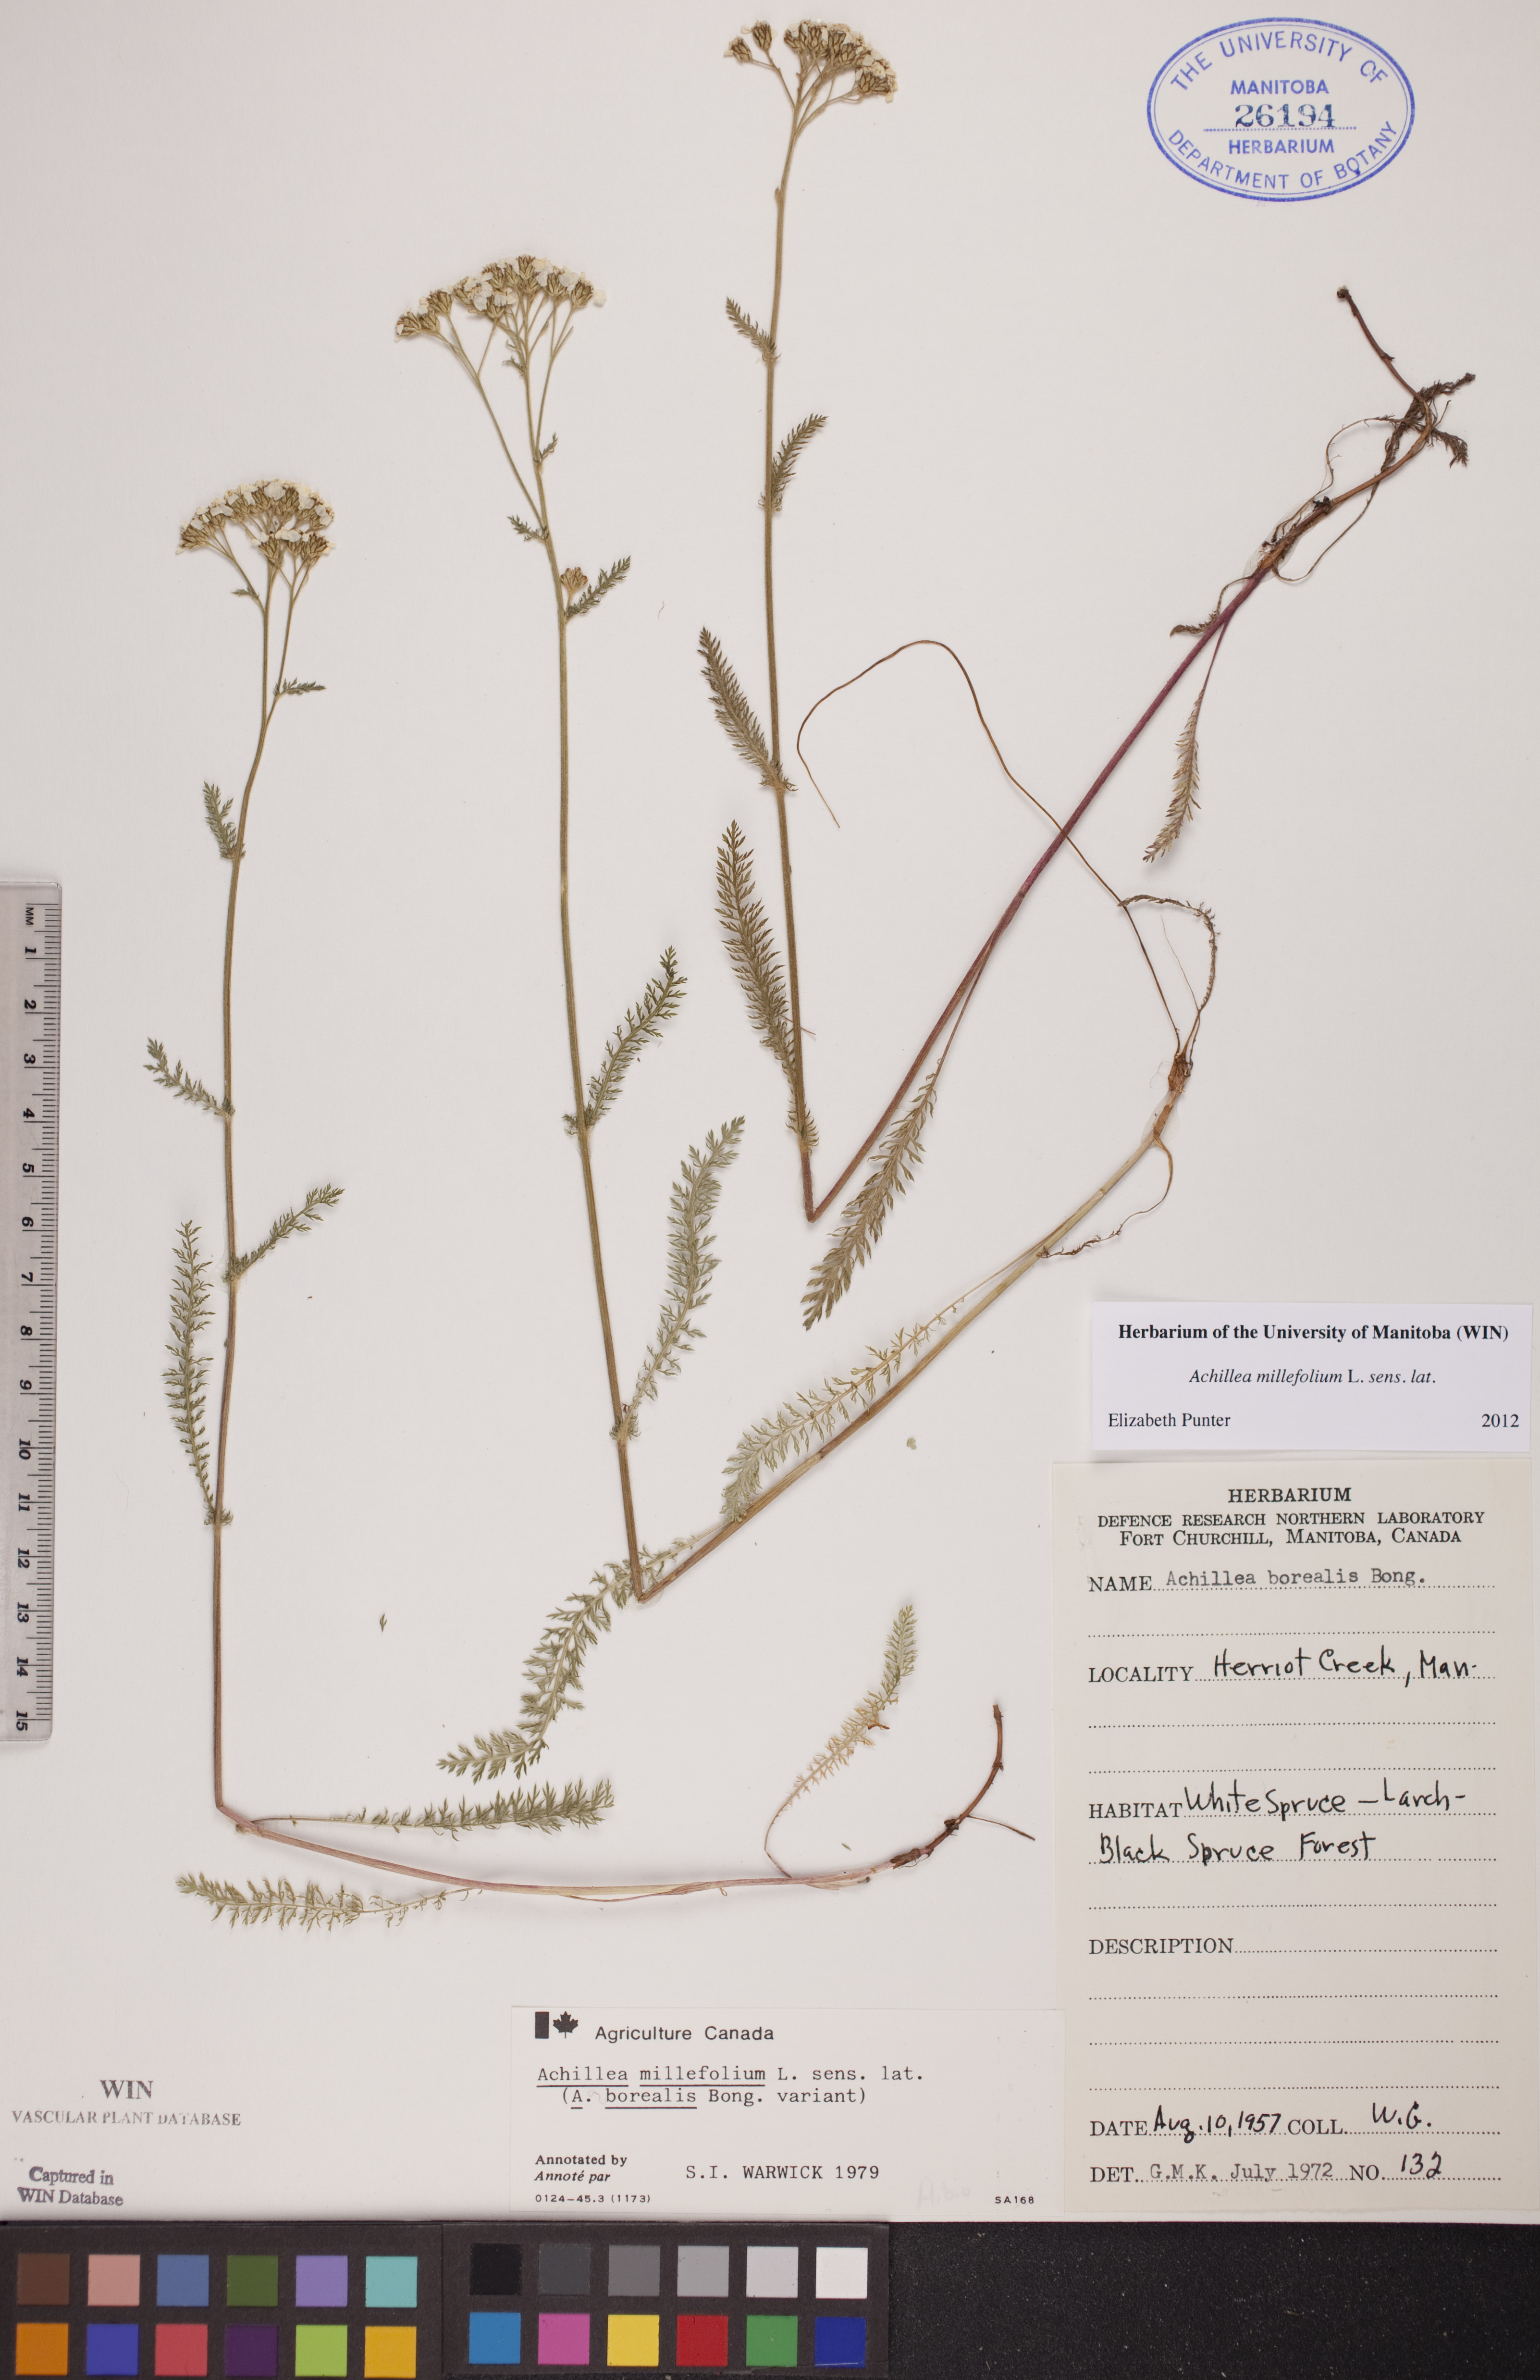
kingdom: Plantae
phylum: Tracheophyta
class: Magnoliopsida
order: Asterales
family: Asteraceae
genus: Achillea
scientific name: Achillea millefolium
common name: Yarrow
